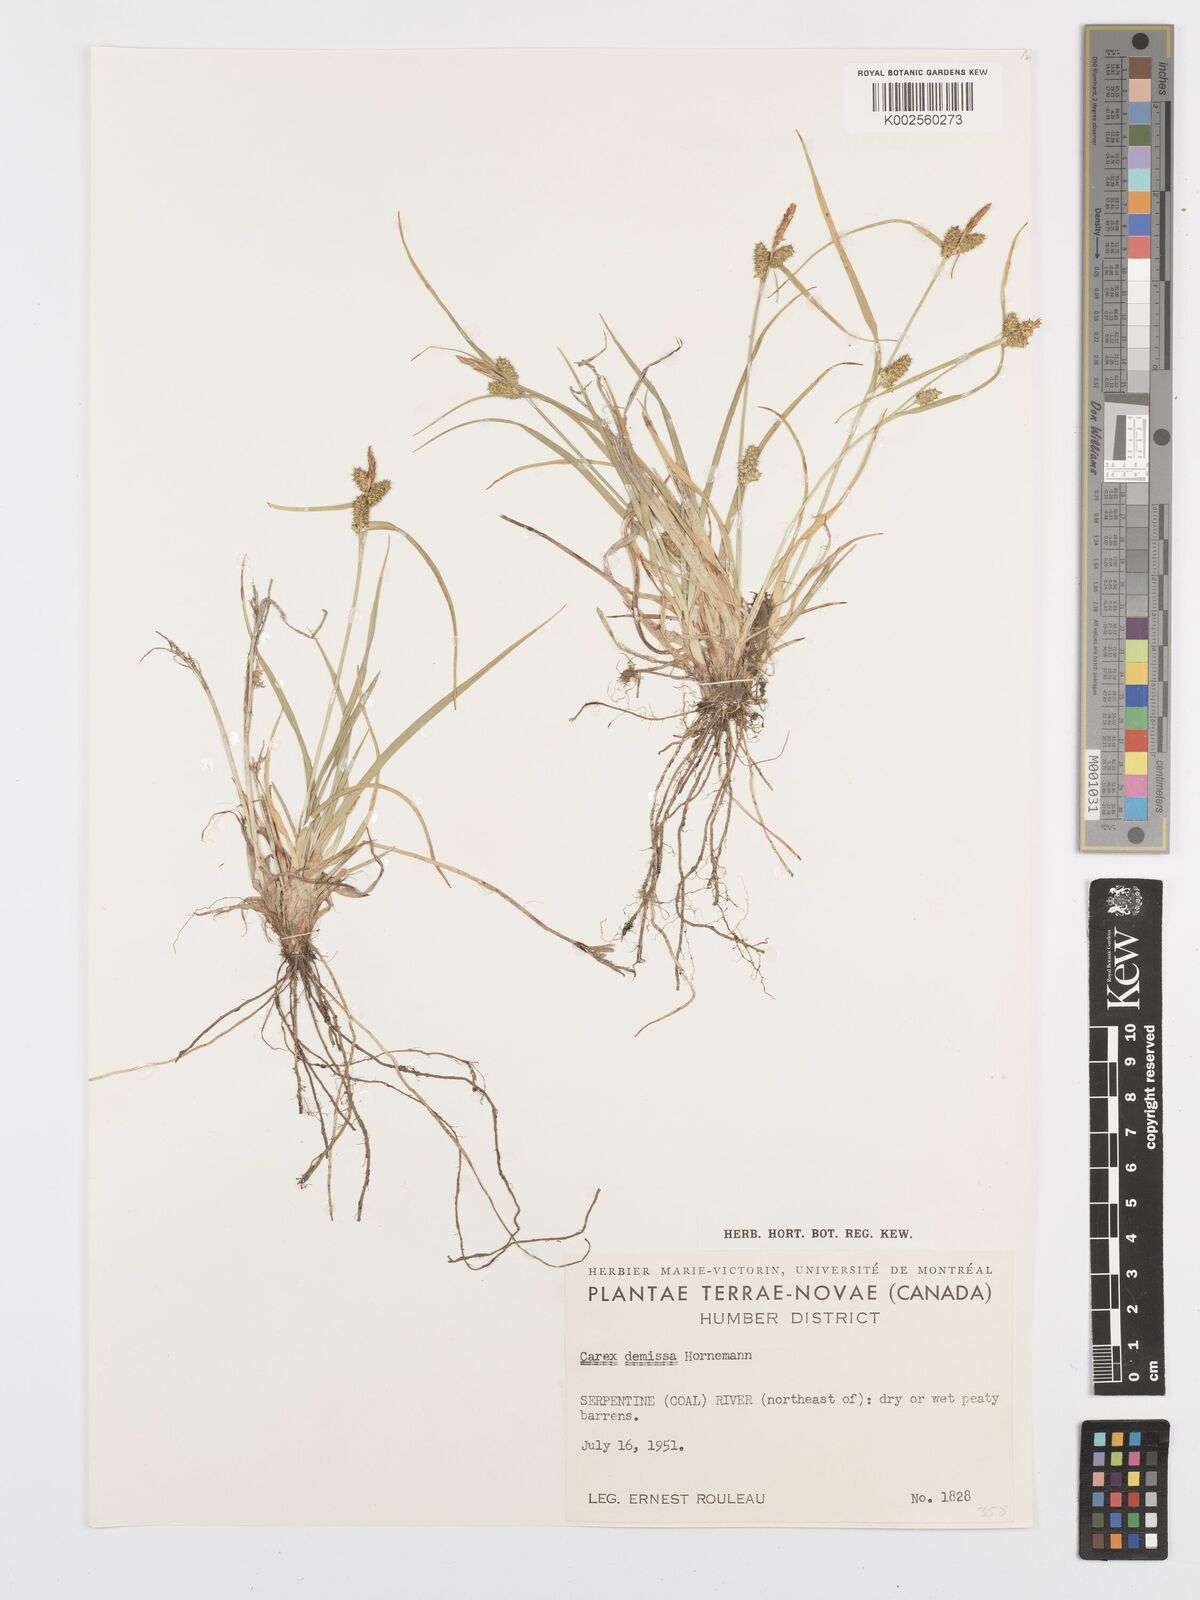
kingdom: Plantae
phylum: Tracheophyta
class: Liliopsida
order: Poales
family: Cyperaceae
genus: Carex
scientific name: Carex flava
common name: Large yellow-sedge
